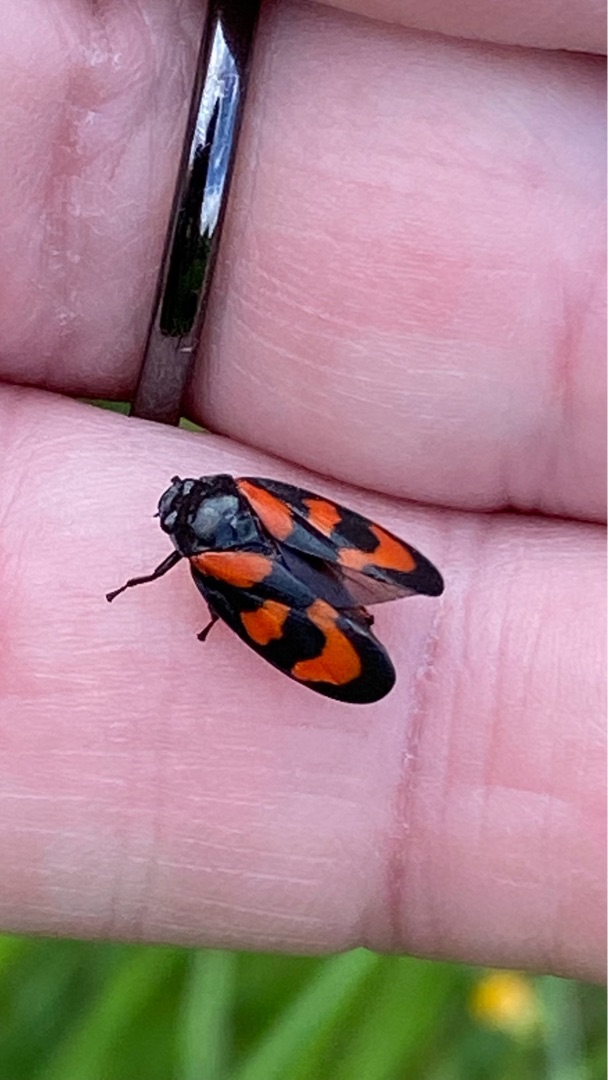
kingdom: Animalia
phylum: Arthropoda
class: Insecta
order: Hemiptera
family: Cercopidae
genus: Cercopis
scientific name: Cercopis vulnerata
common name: Blodcikade
